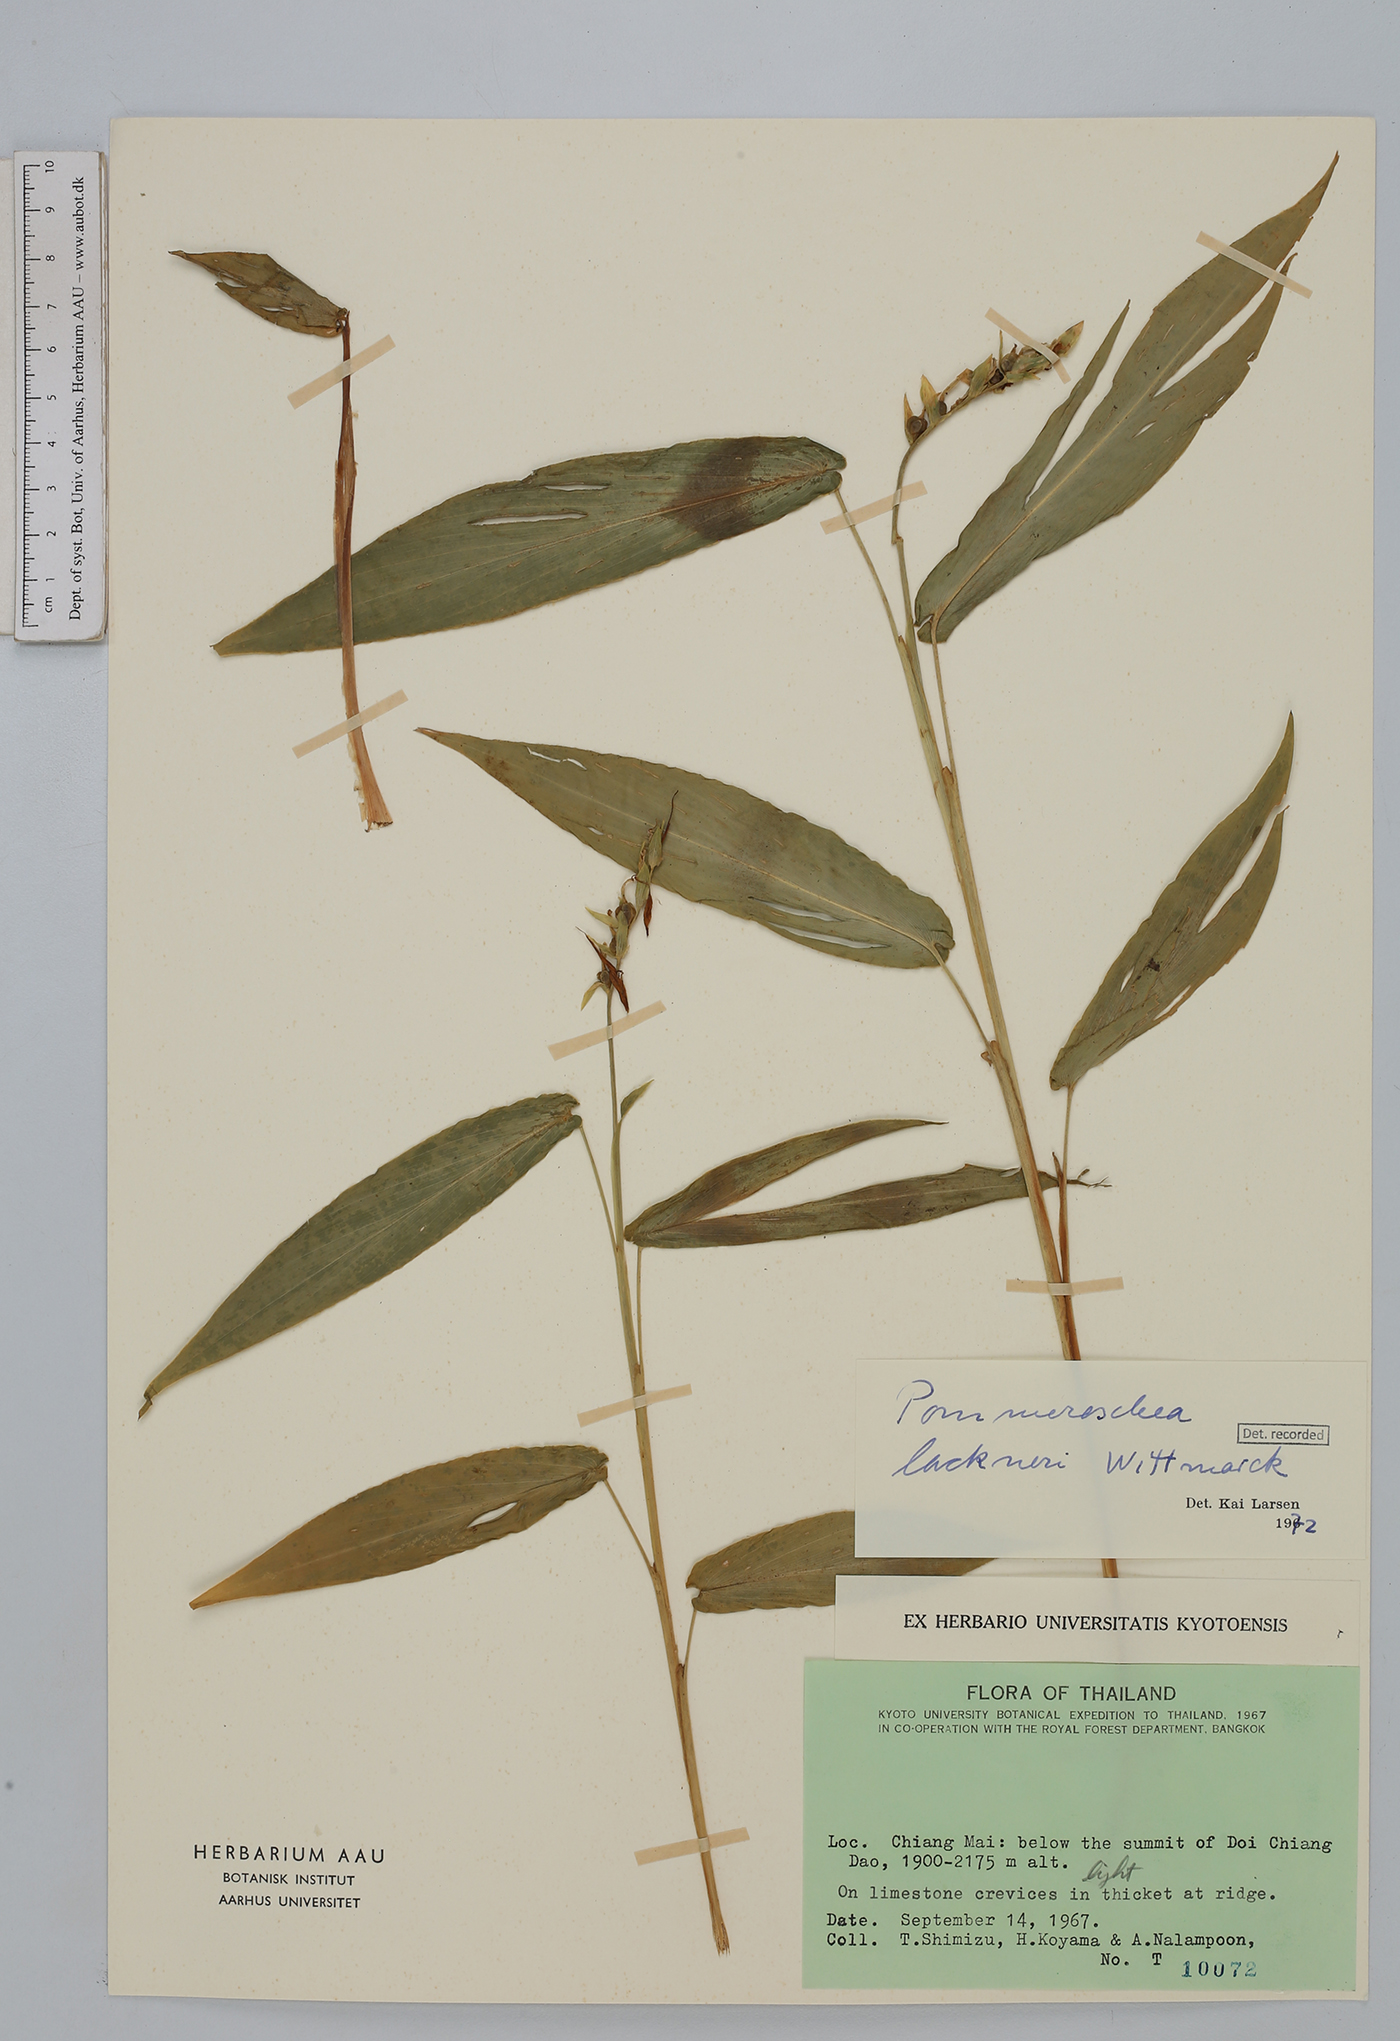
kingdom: Plantae
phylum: Tracheophyta
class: Liliopsida
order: Zingiberales
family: Zingiberaceae
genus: Pommereschea
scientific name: Pommereschea lackneri
